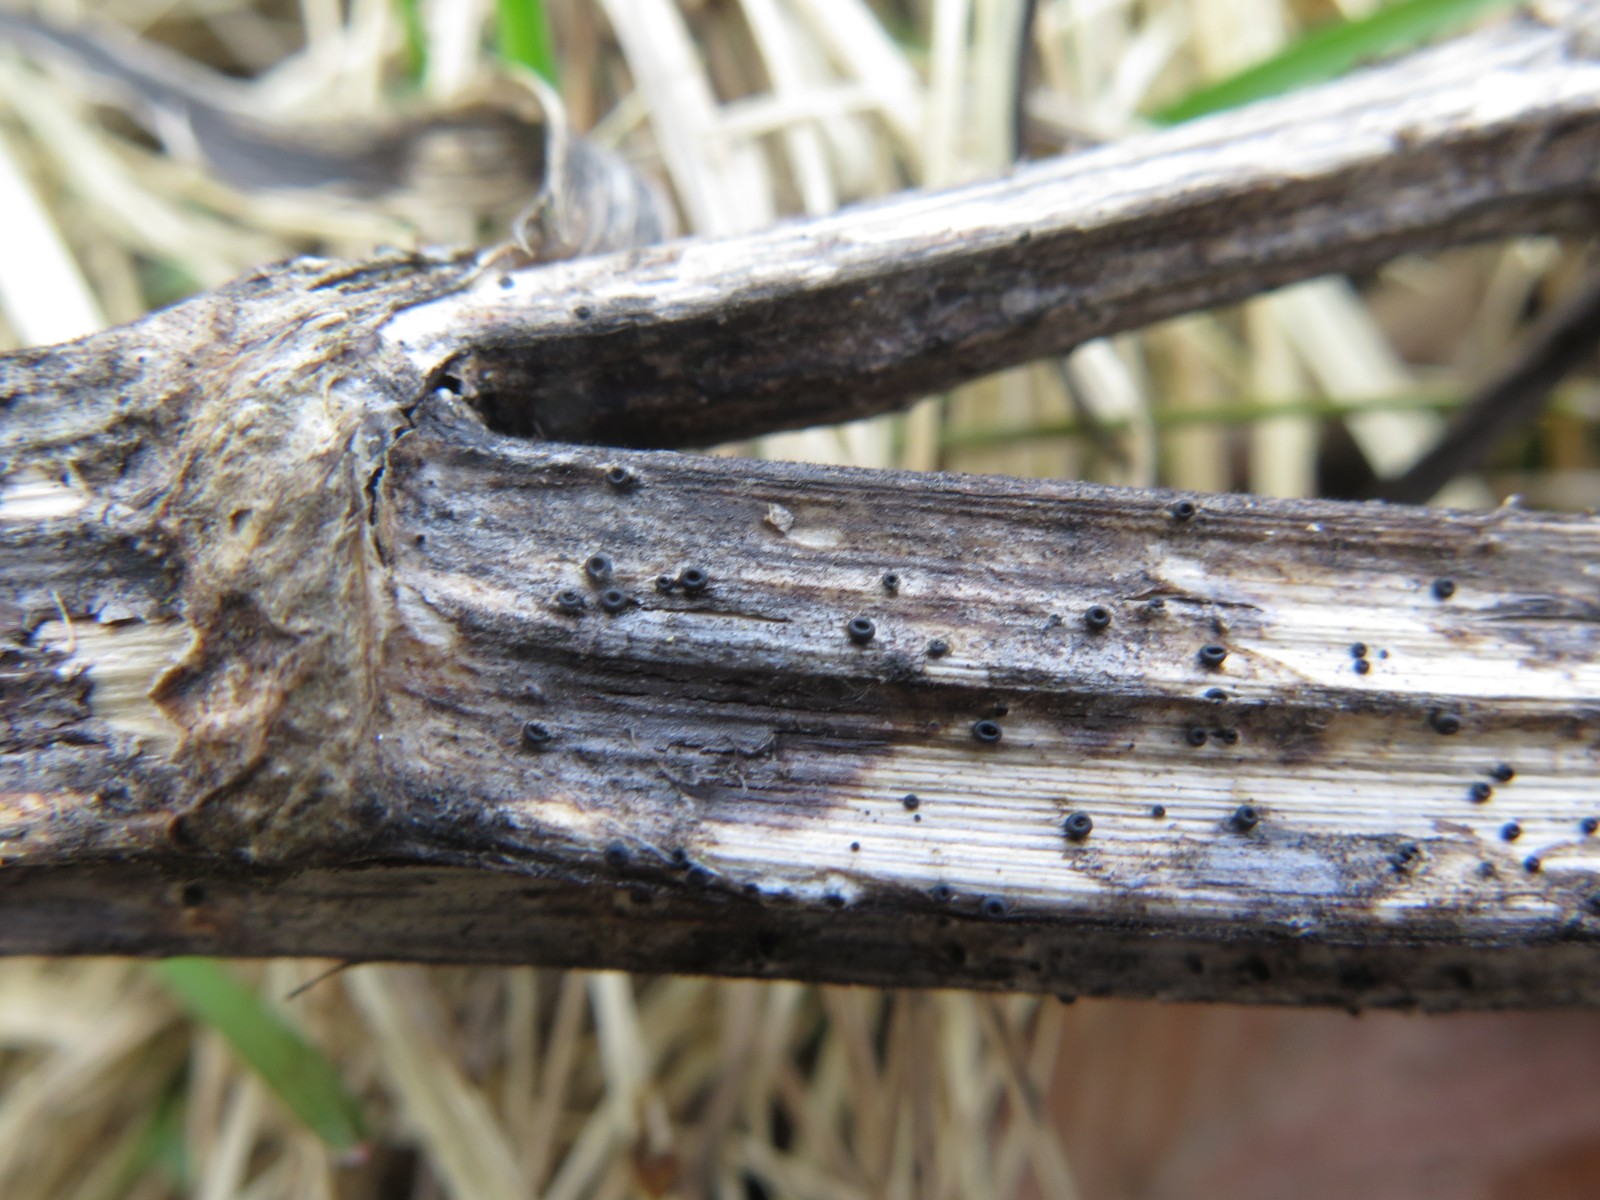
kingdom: Fungi
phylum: Ascomycota
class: Leotiomycetes
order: Helotiales
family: Heterosphaeriaceae
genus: Heterosphaeria
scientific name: Heterosphaeria
